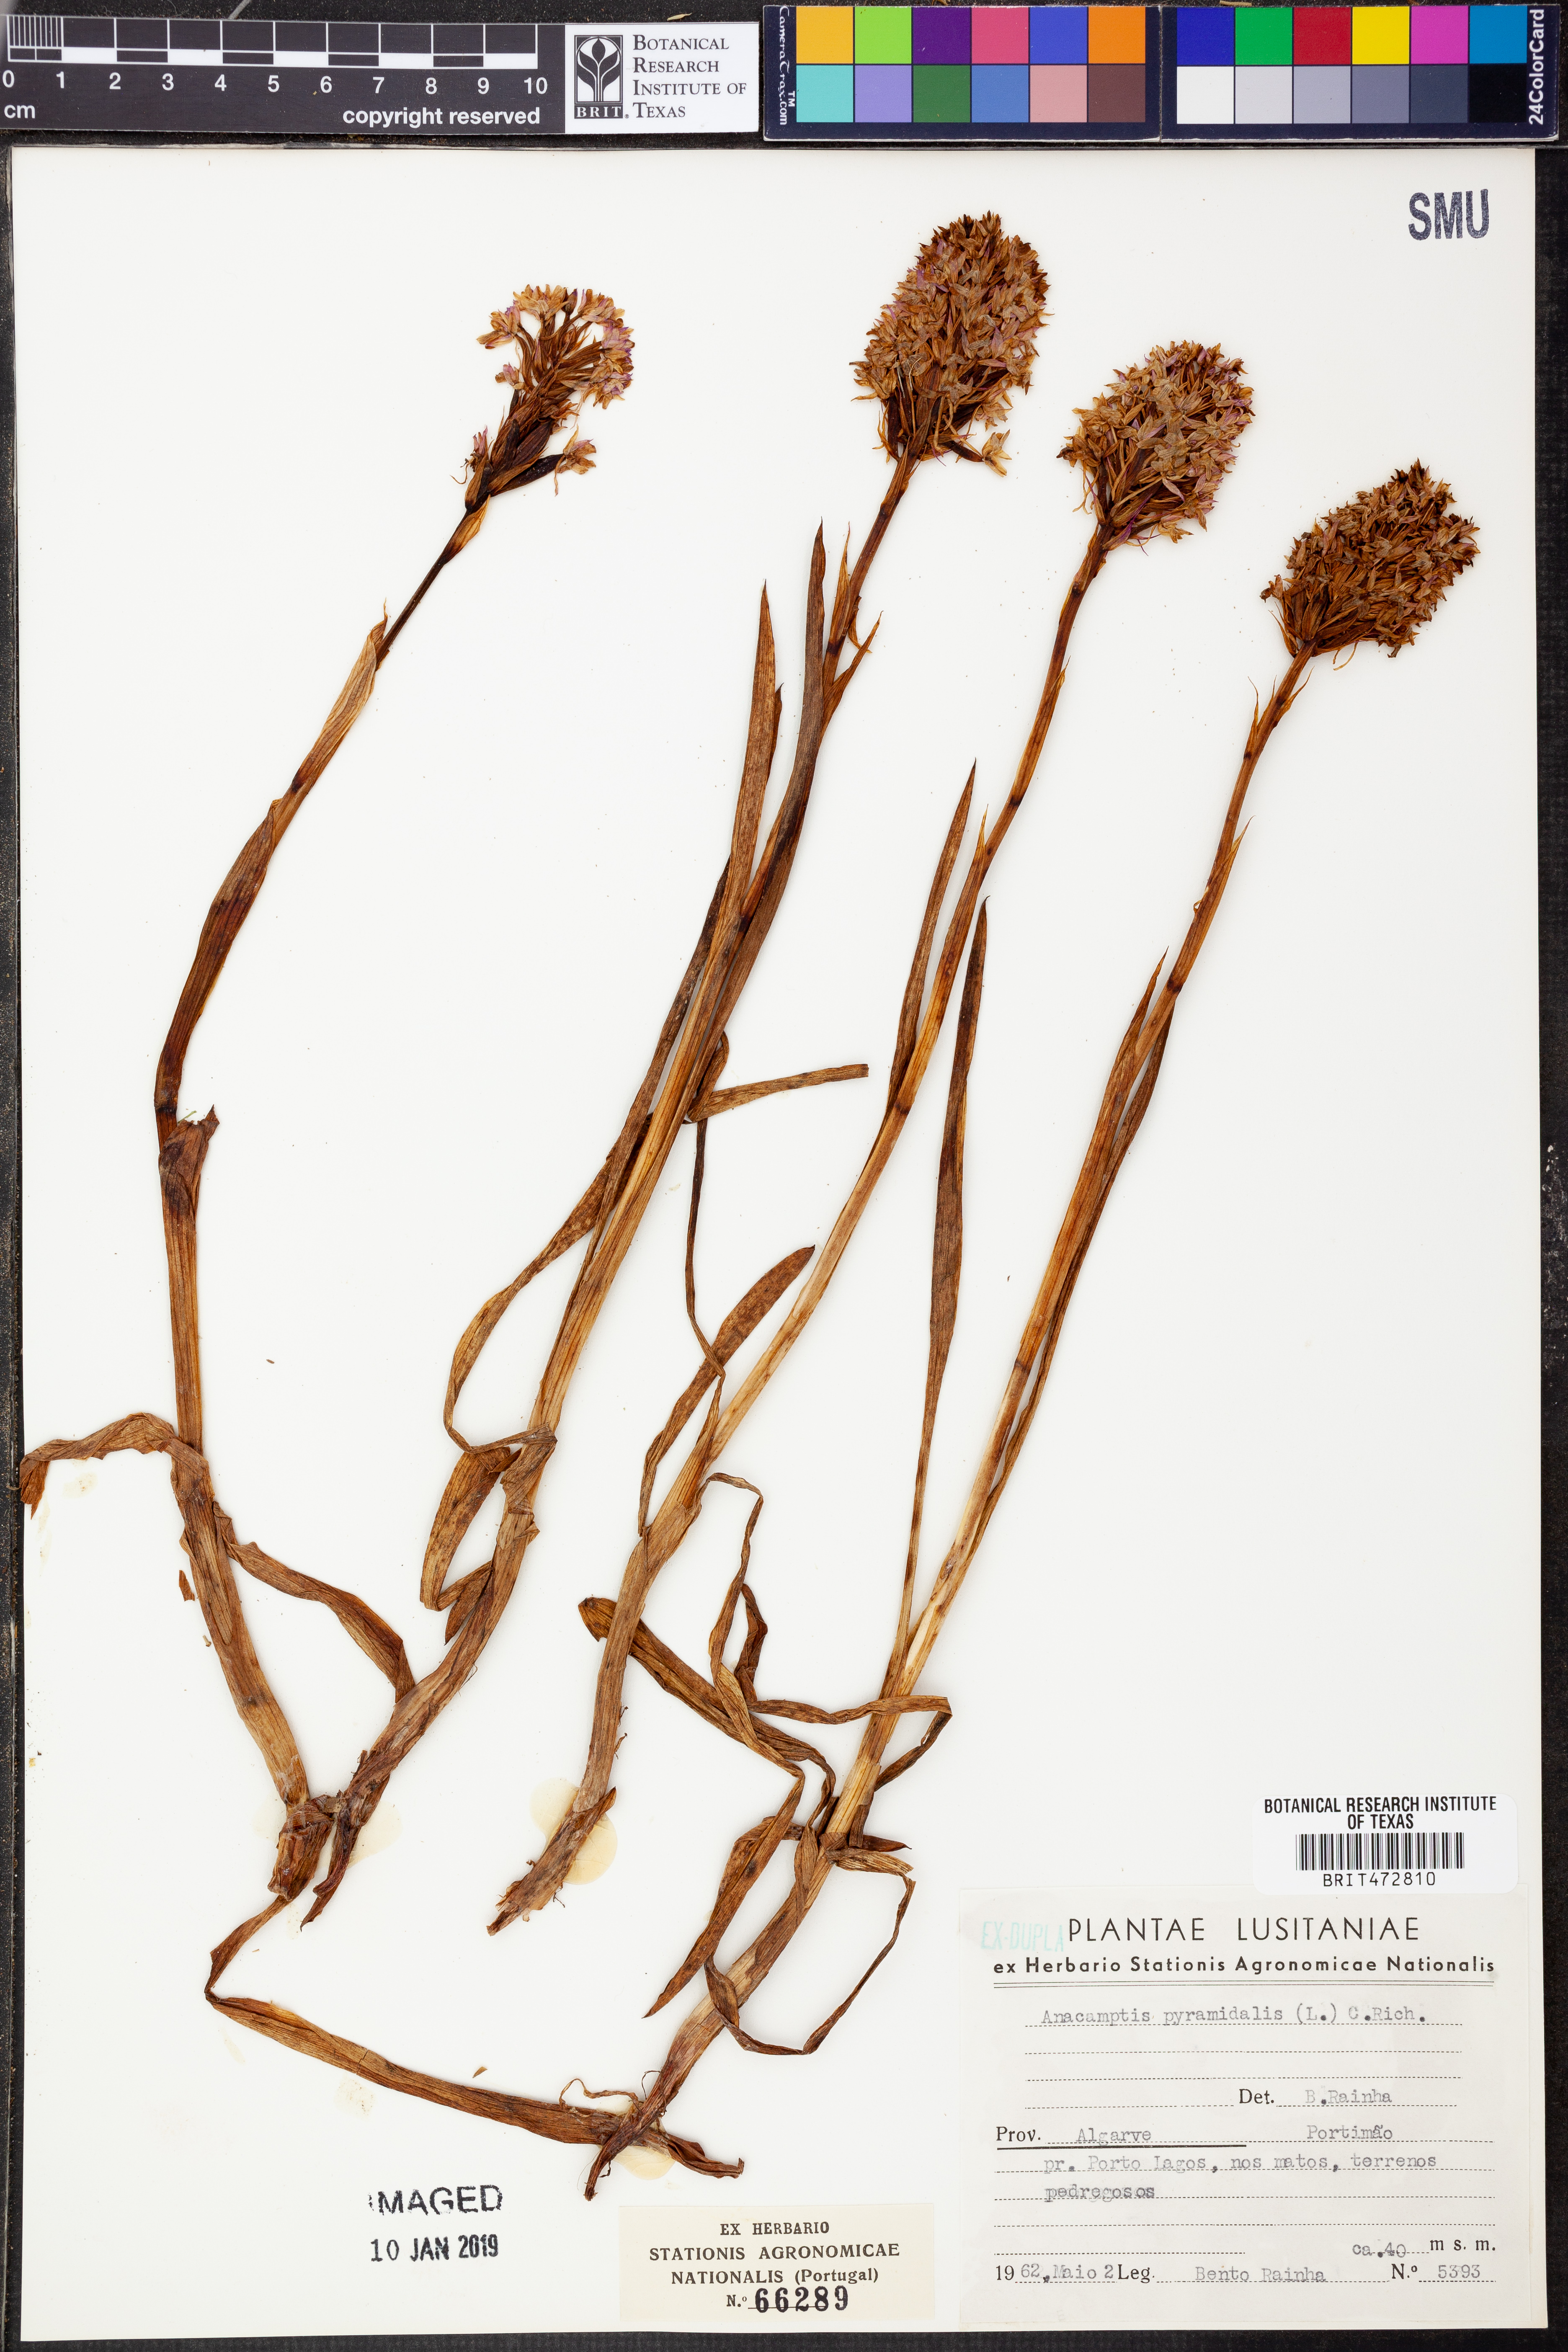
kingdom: Plantae
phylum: Tracheophyta
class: Liliopsida
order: Asparagales
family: Orchidaceae
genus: Anacamptis
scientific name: Anacamptis pyramidalis
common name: Pyramidal orchid
